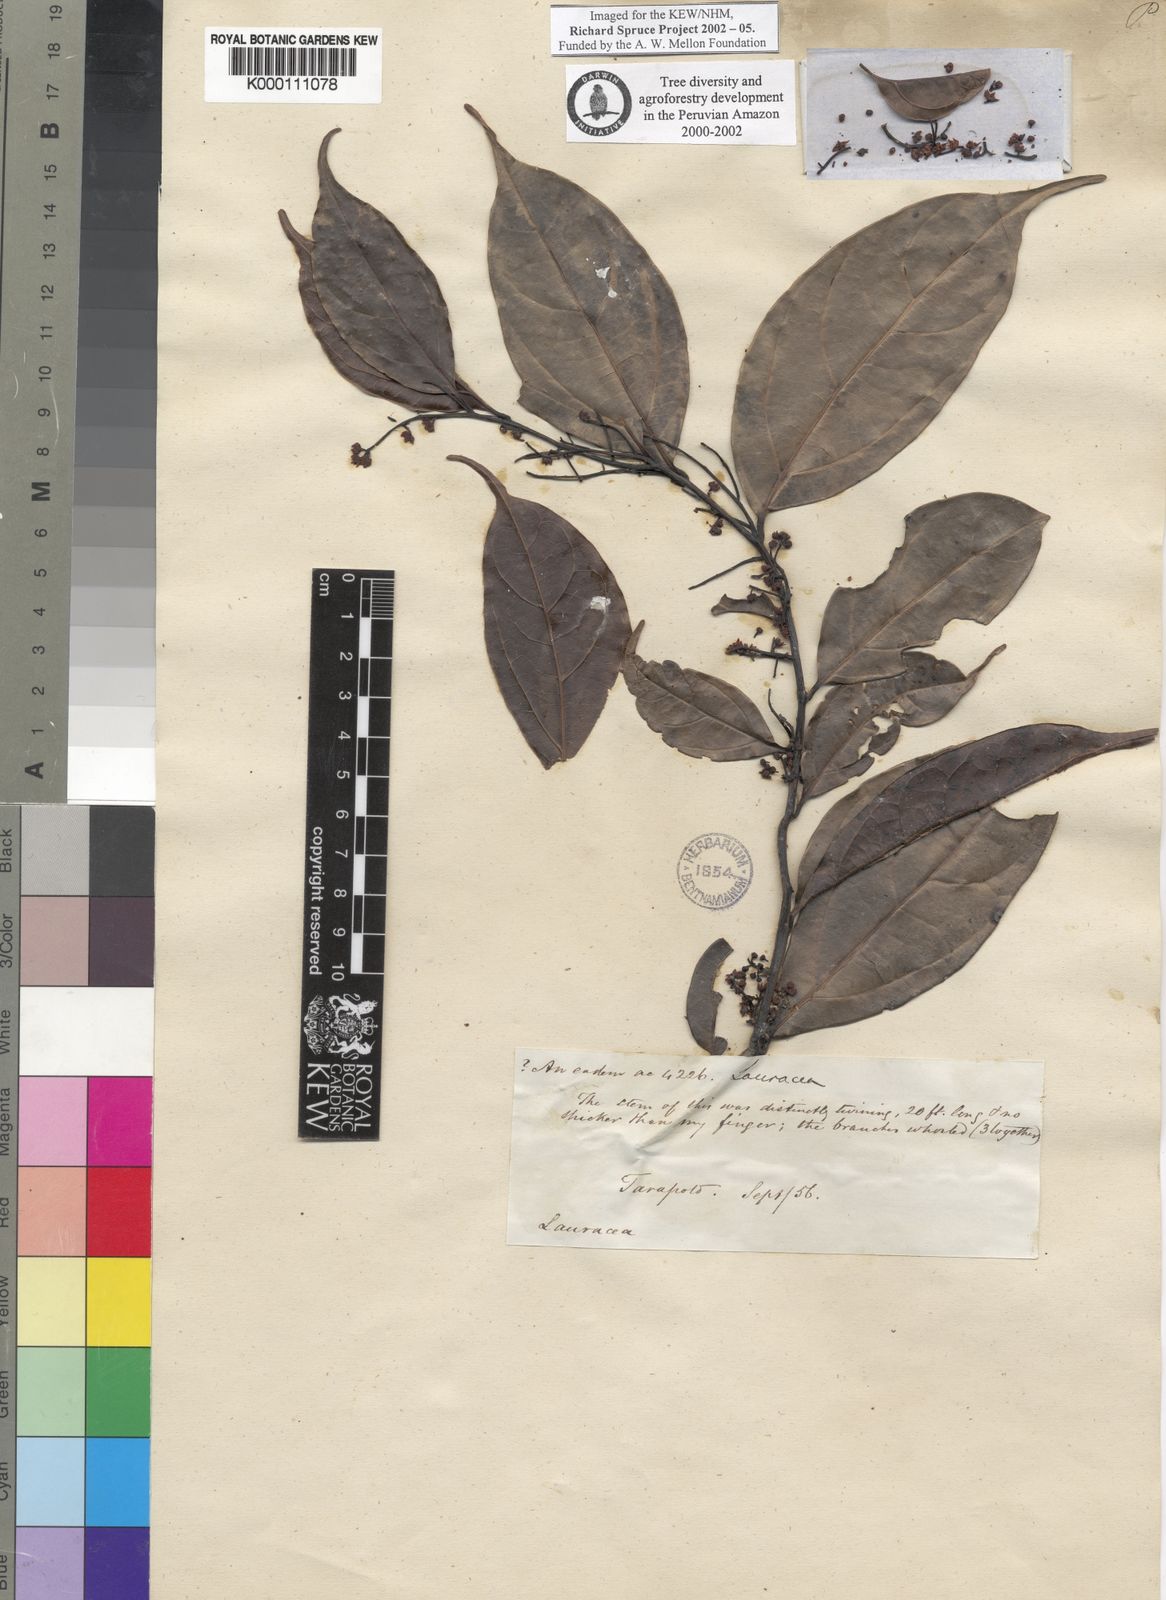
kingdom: Plantae
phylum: Tracheophyta
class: Magnoliopsida
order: Laurales
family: Lauraceae
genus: Ocotea
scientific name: Ocotea tarapotana
